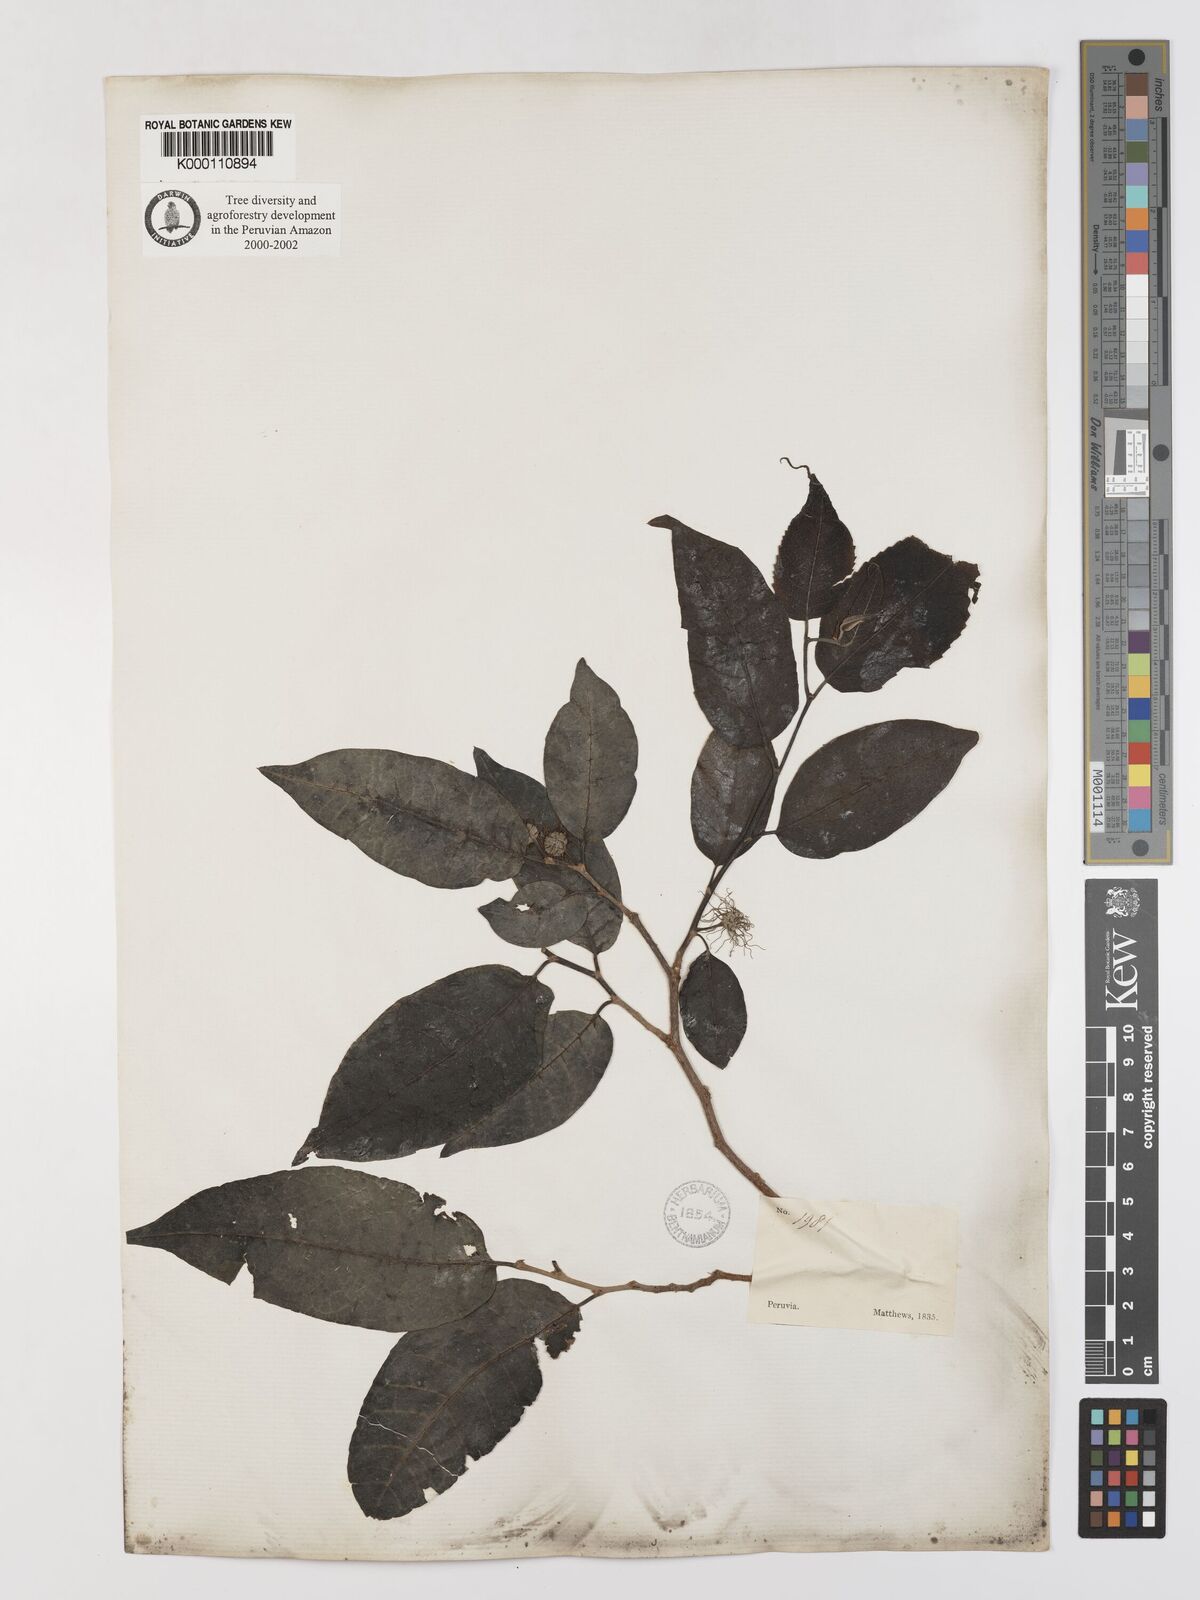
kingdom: Plantae
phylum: Tracheophyta
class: Magnoliopsida
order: Rosales
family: Moraceae
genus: Maclura
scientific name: Maclura tinctoria
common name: Old fustic
